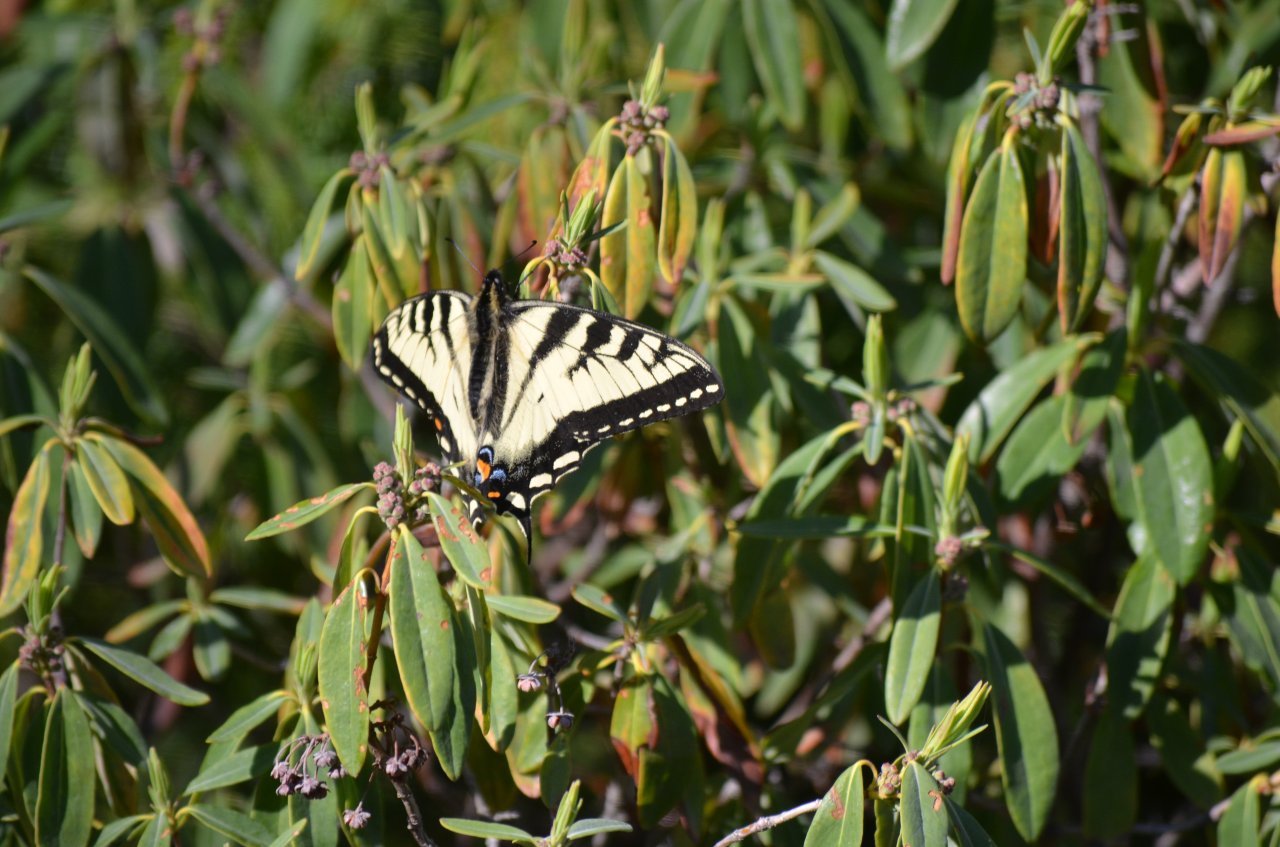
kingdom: Animalia
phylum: Arthropoda
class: Insecta
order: Lepidoptera
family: Papilionidae
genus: Pterourus
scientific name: Pterourus canadensis
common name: Canadian Tiger Swallowtail
